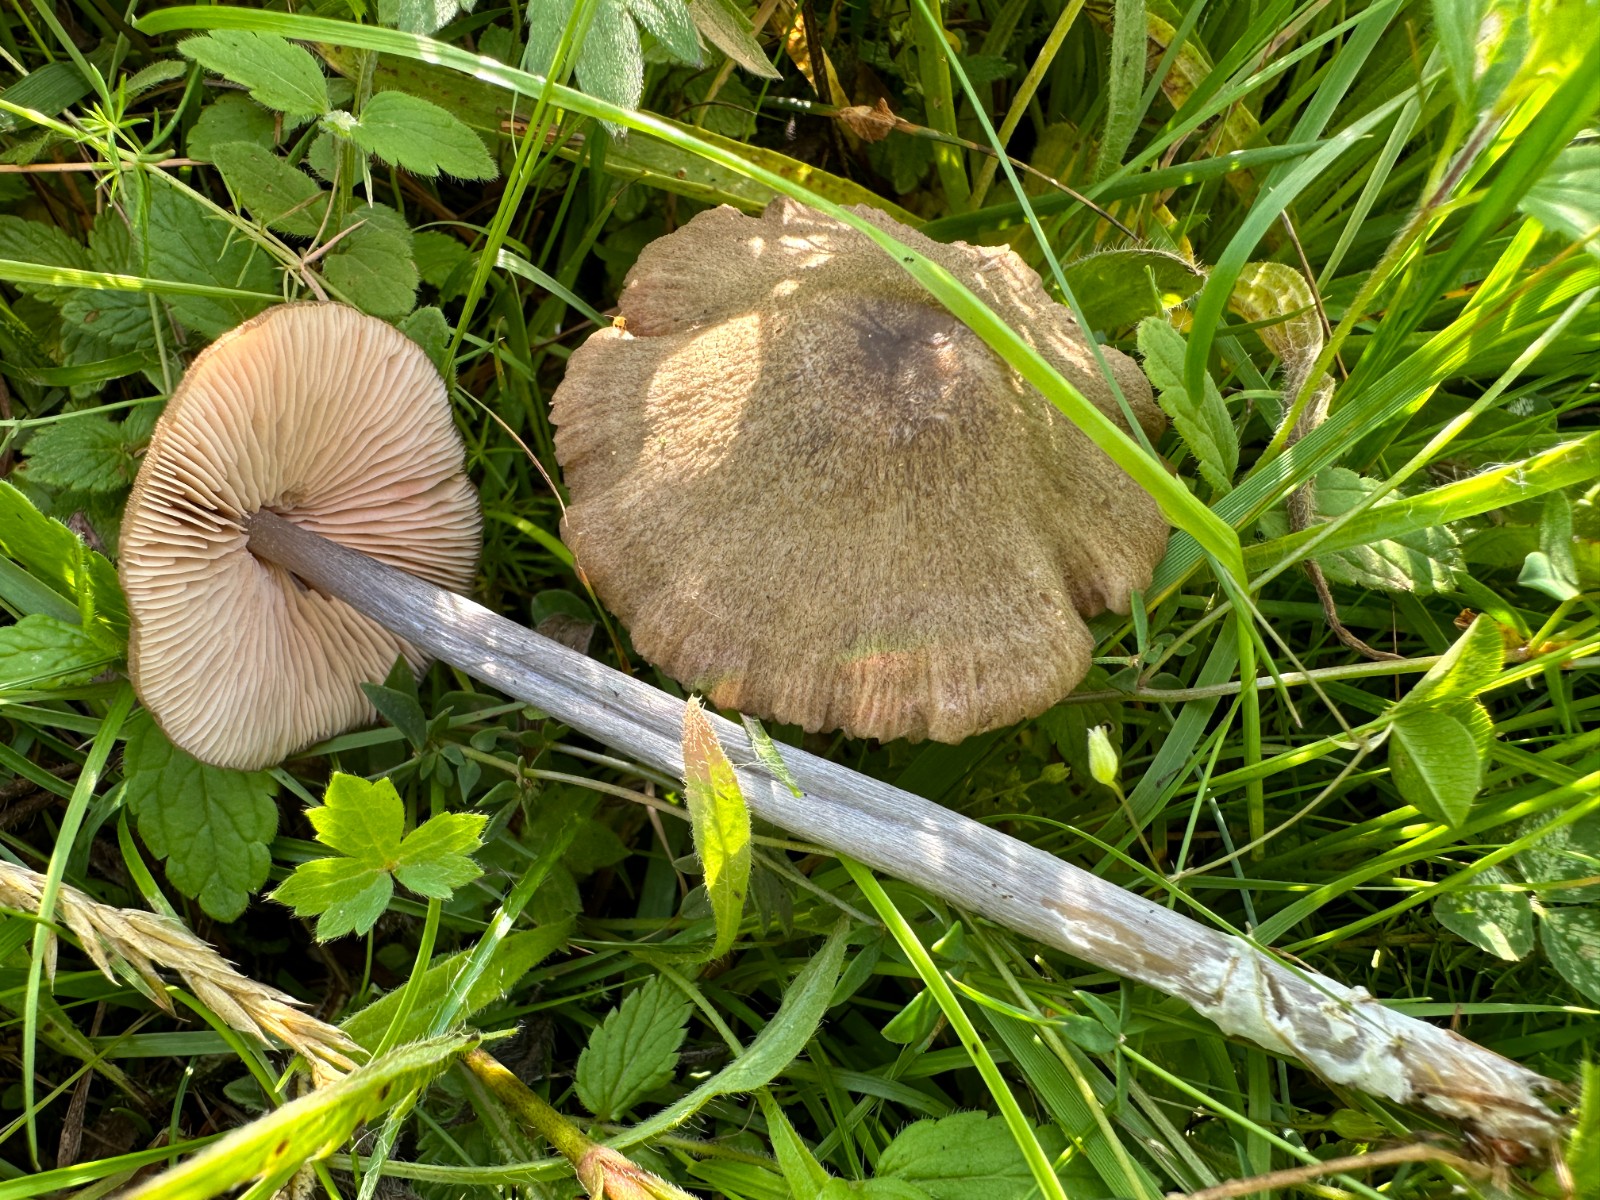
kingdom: Fungi
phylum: Basidiomycota
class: Agaricomycetes
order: Agaricales
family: Entolomataceae
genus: Entoloma
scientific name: Entoloma griseocyaneum
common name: gråblå rødblad
